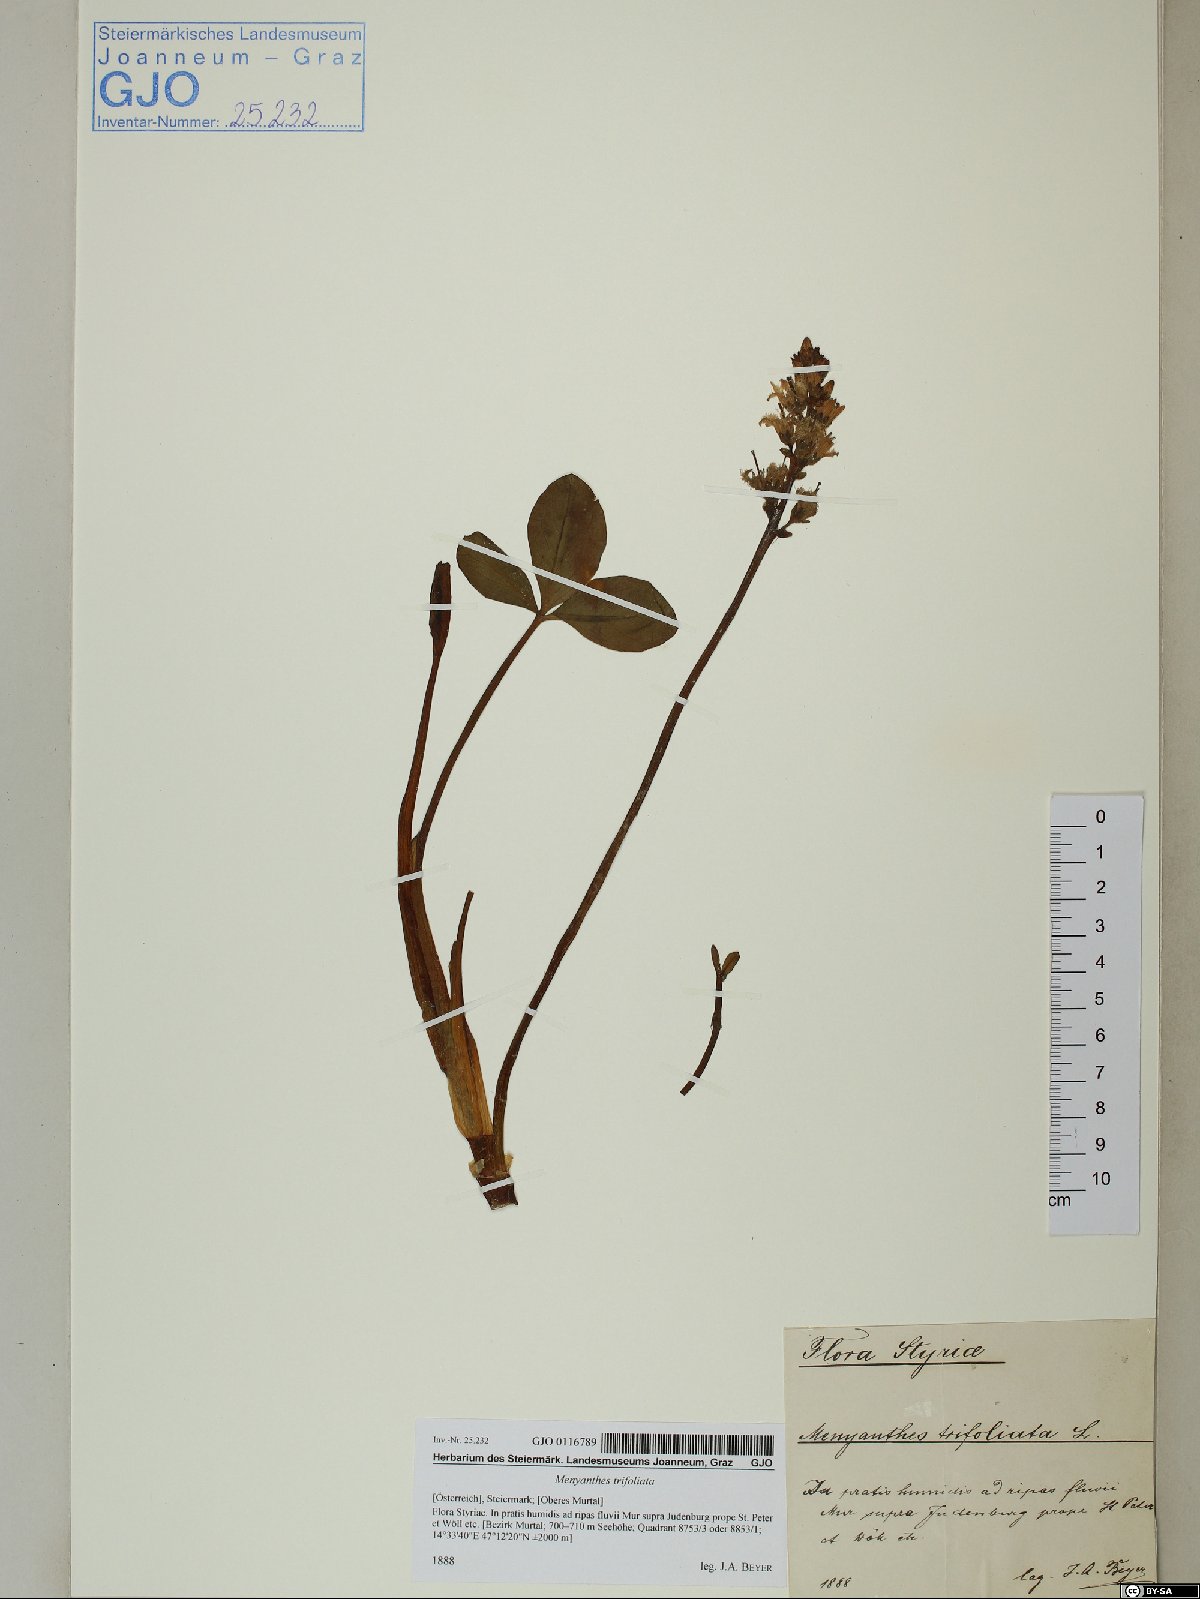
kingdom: Plantae
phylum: Tracheophyta
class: Magnoliopsida
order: Asterales
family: Menyanthaceae
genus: Menyanthes
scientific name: Menyanthes trifoliata
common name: Bogbean
